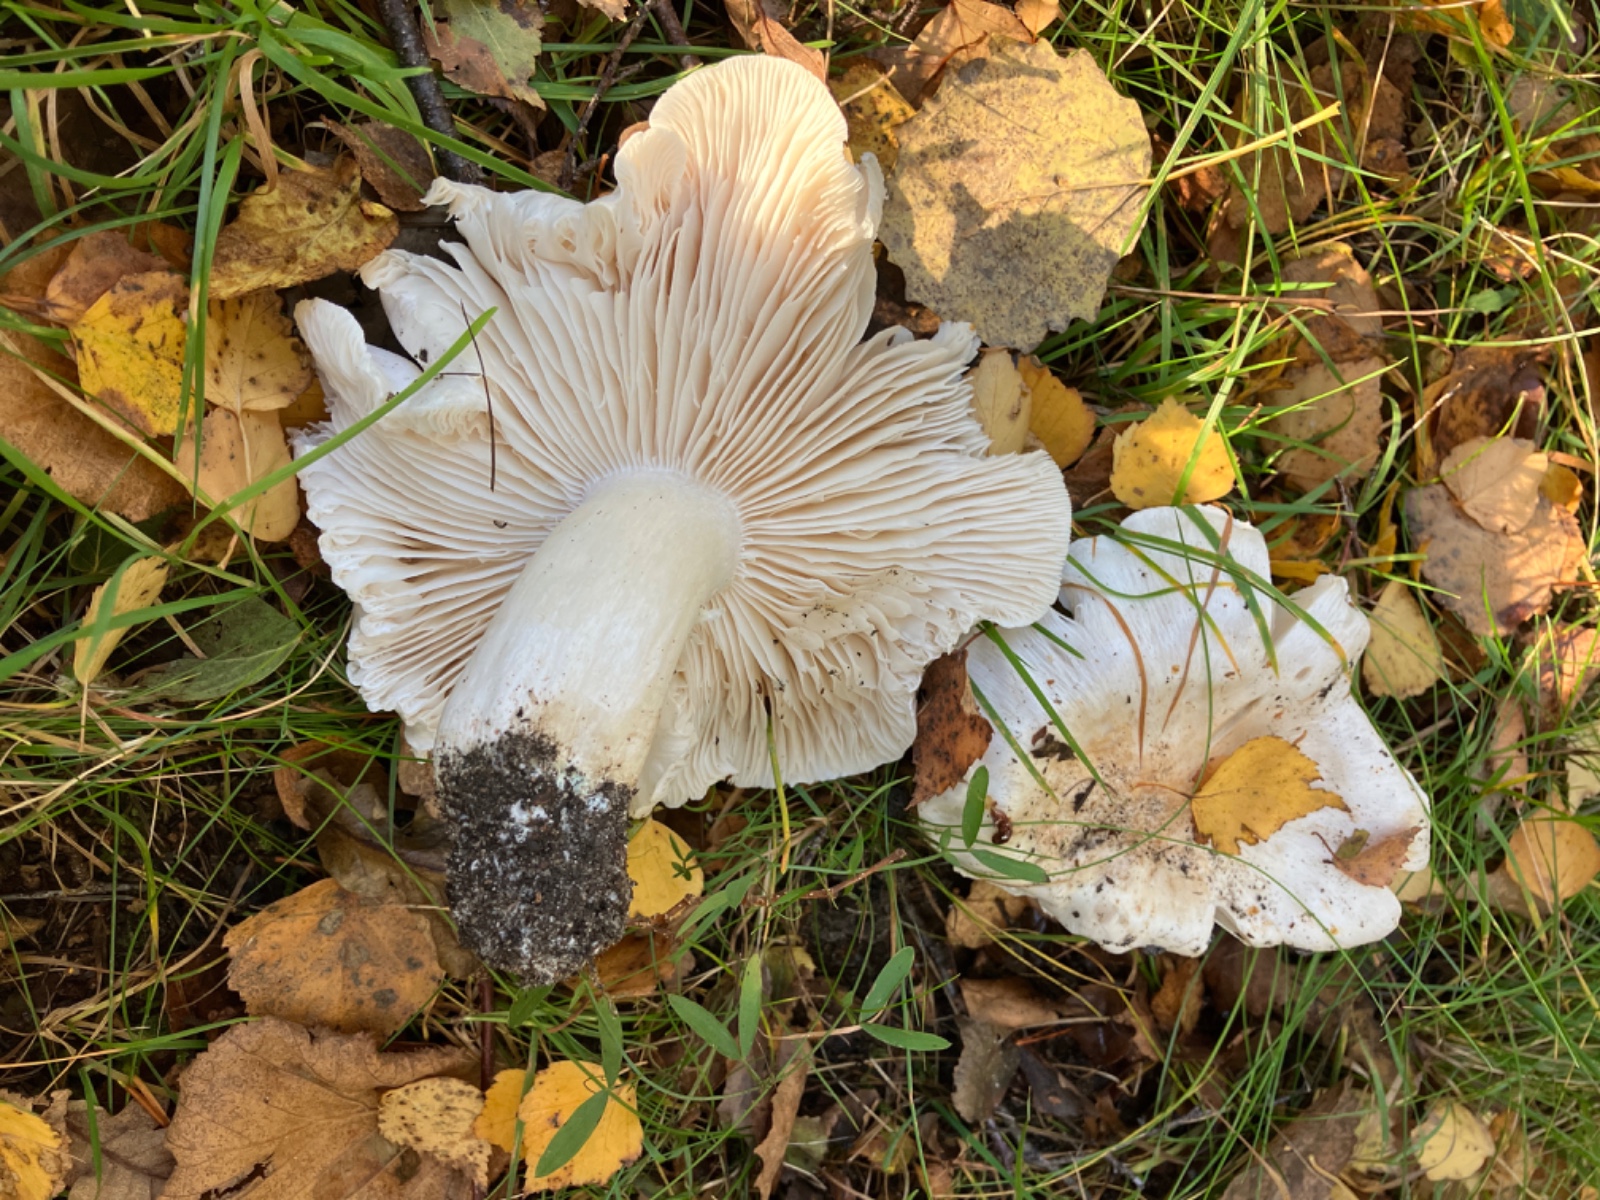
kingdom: Fungi
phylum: Basidiomycota
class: Agaricomycetes
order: Agaricales
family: Tricholomataceae
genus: Tricholoma
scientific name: Tricholoma columbetta
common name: silke-ridderhat
